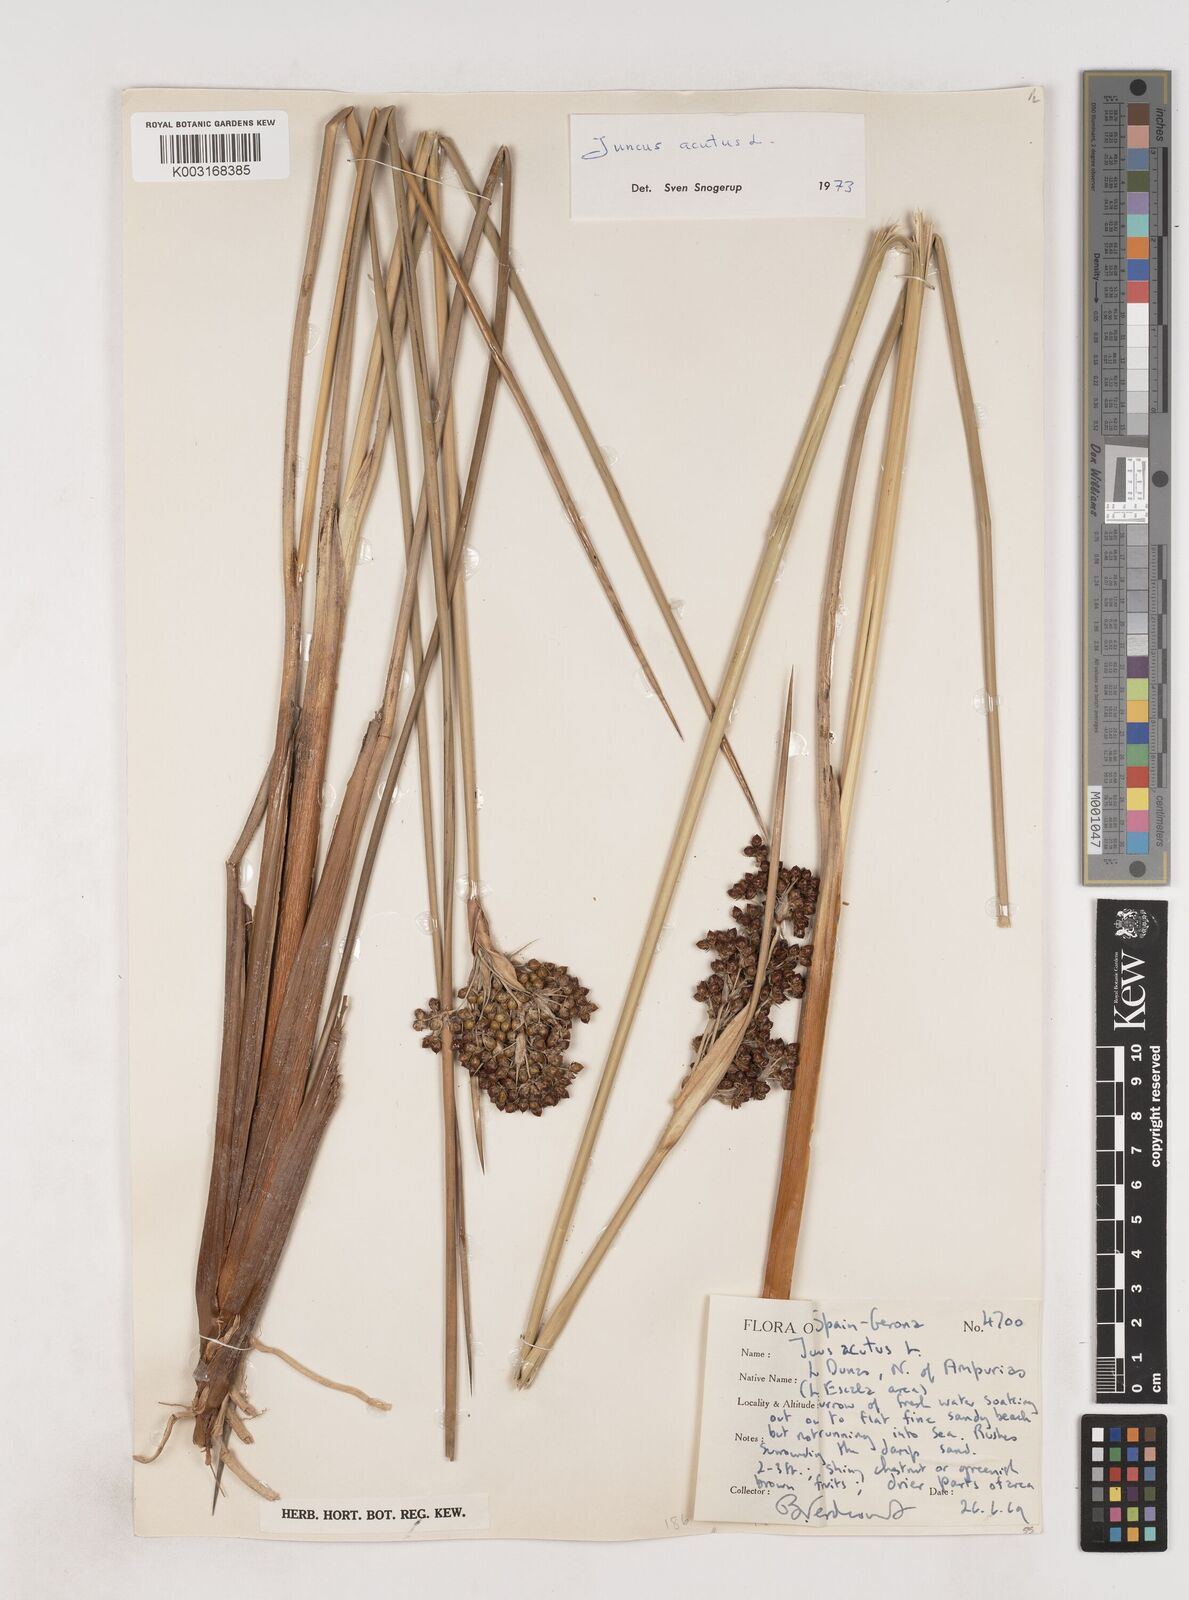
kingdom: Plantae
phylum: Tracheophyta
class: Liliopsida
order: Poales
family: Juncaceae
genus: Juncus
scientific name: Juncus acutus
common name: Sharp rush
